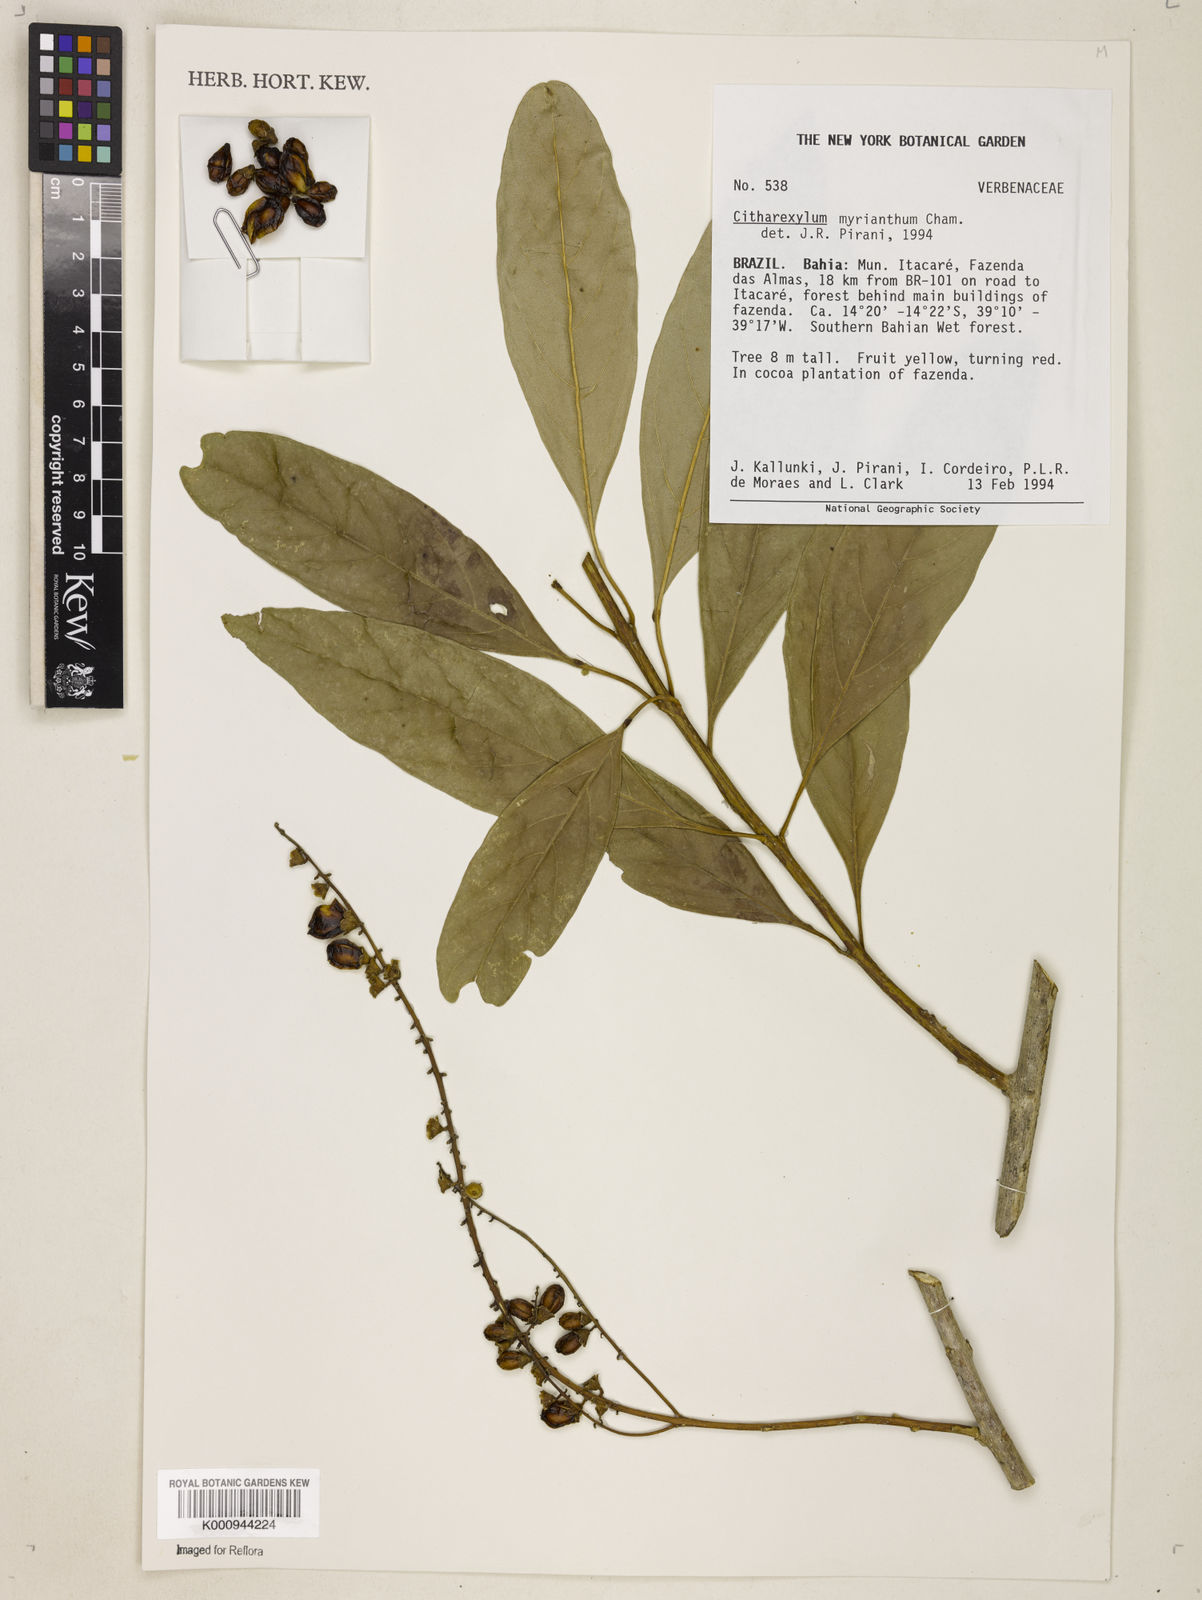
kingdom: Plantae
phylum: Tracheophyta
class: Magnoliopsida
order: Lamiales
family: Verbenaceae
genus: Citharexylum
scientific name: Citharexylum myrianthum
